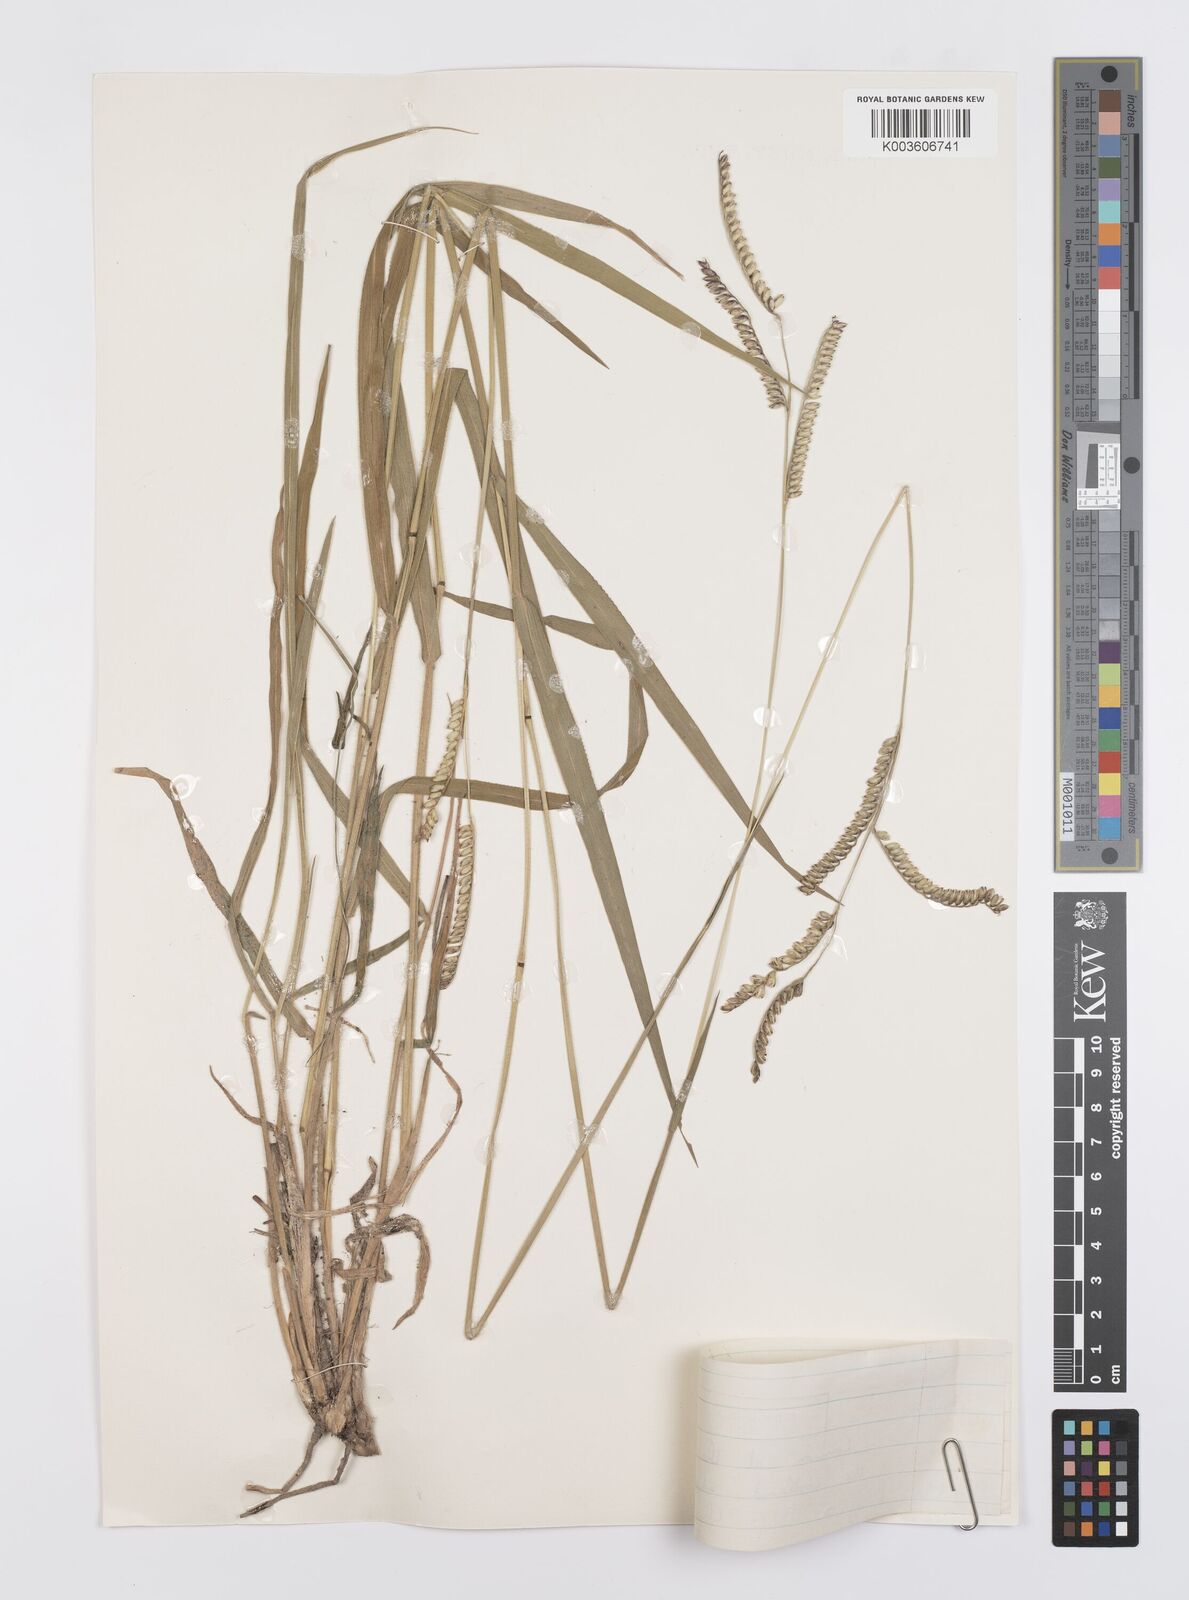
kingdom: Plantae
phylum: Tracheophyta
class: Liliopsida
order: Poales
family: Poaceae
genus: Urochloa
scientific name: Urochloa brizantha
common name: Palisade signalgrass
